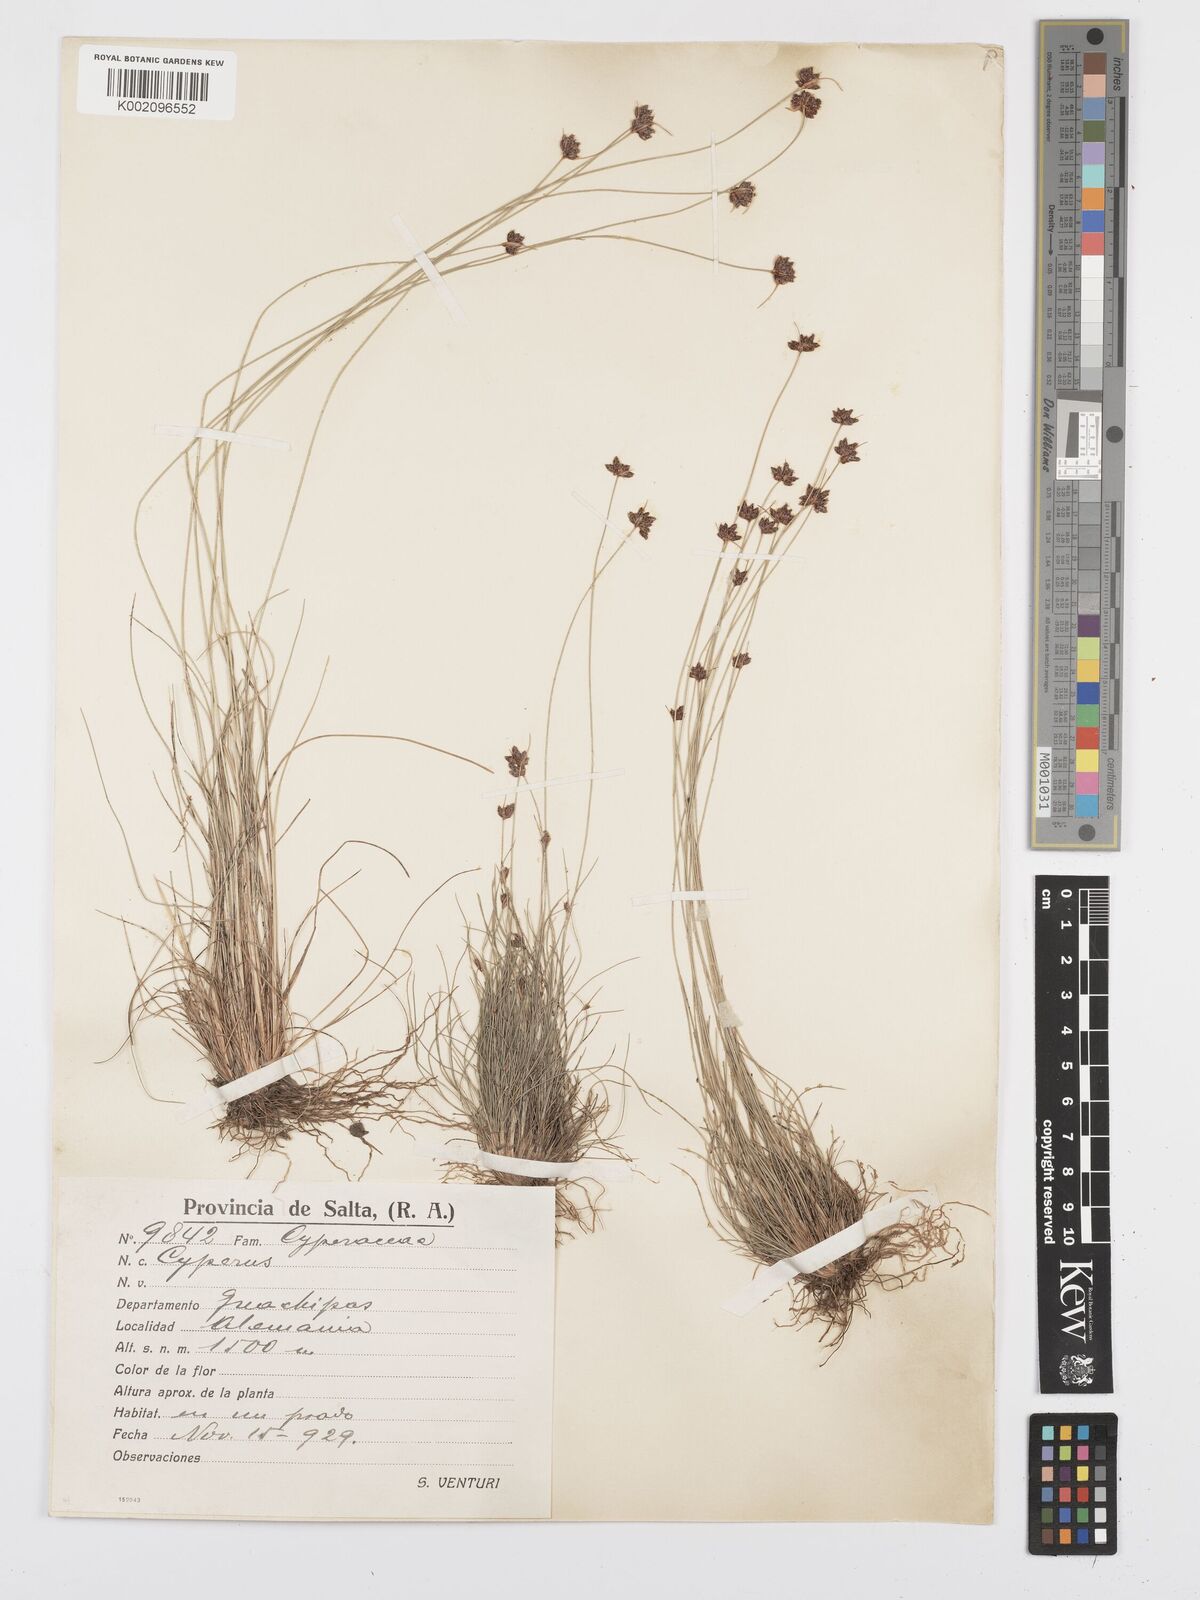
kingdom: Plantae
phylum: Tracheophyta
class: Liliopsida
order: Poales
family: Cyperaceae
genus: Bulbostylis
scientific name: Bulbostylis juncoides
